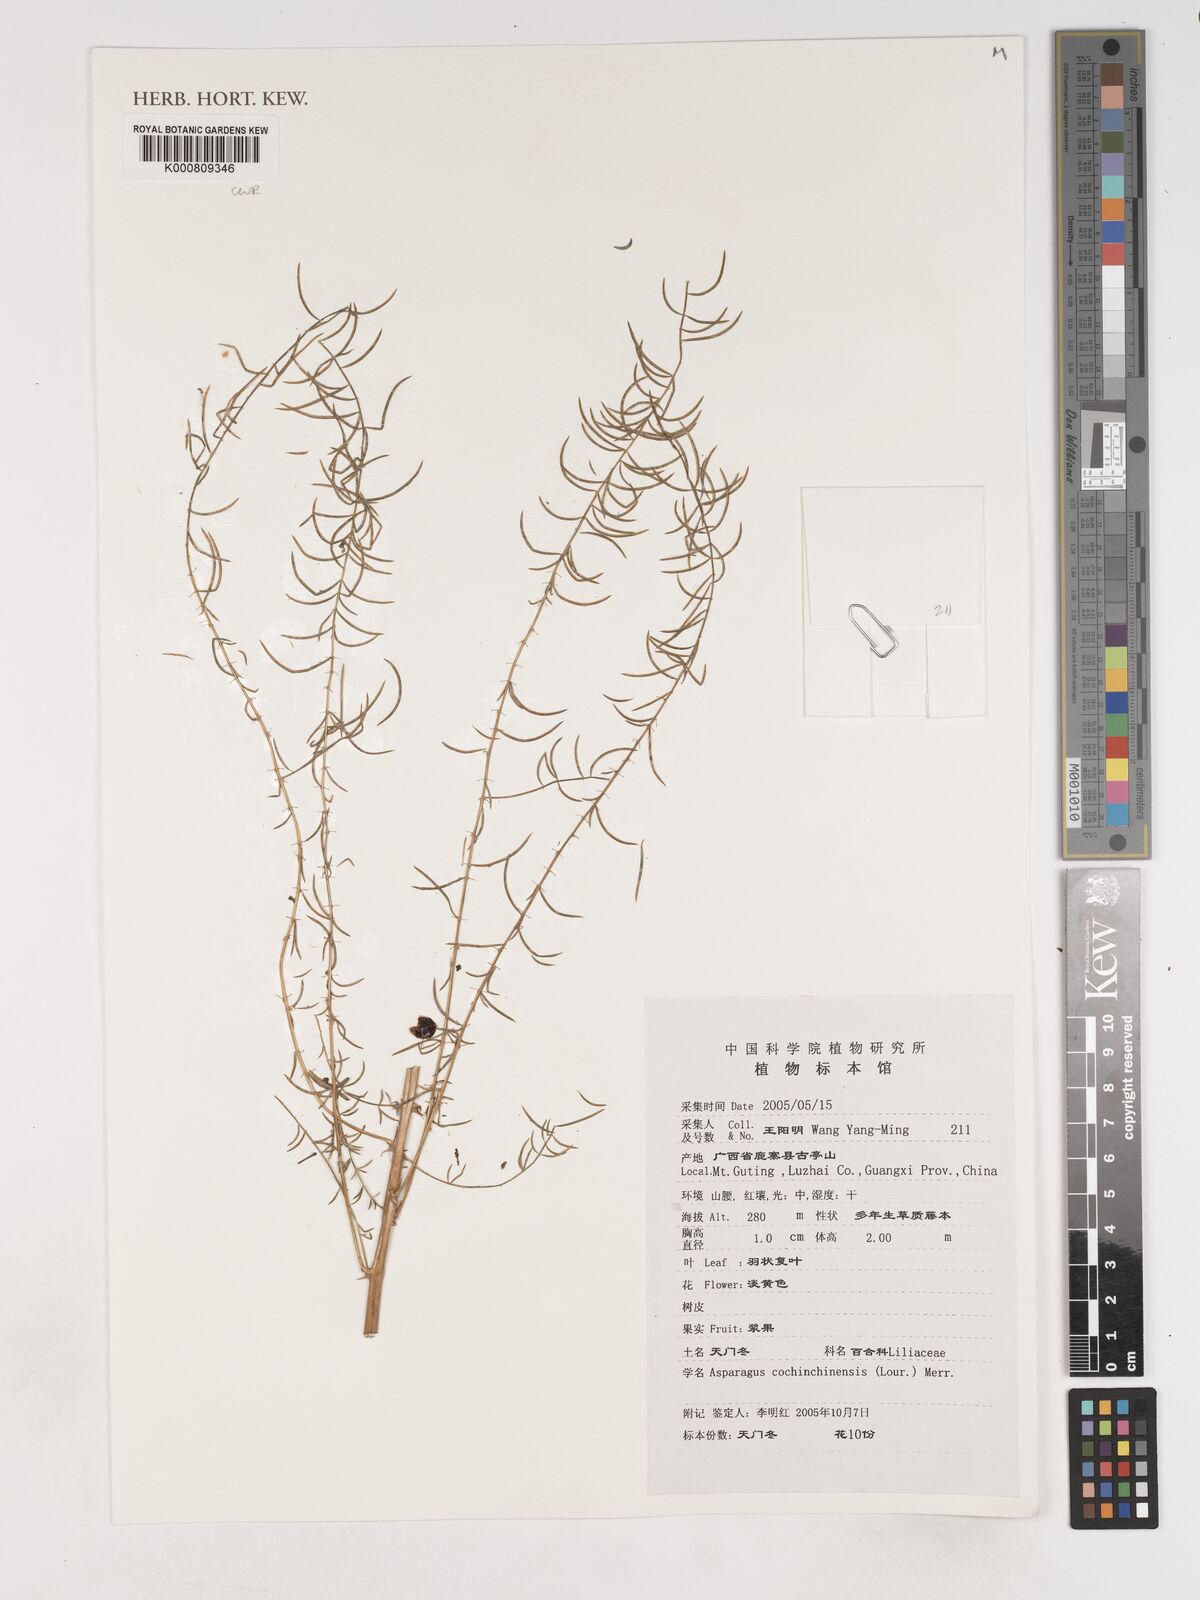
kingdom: Plantae
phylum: Tracheophyta
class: Liliopsida
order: Asparagales
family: Asparagaceae
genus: Asparagus
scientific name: Asparagus
